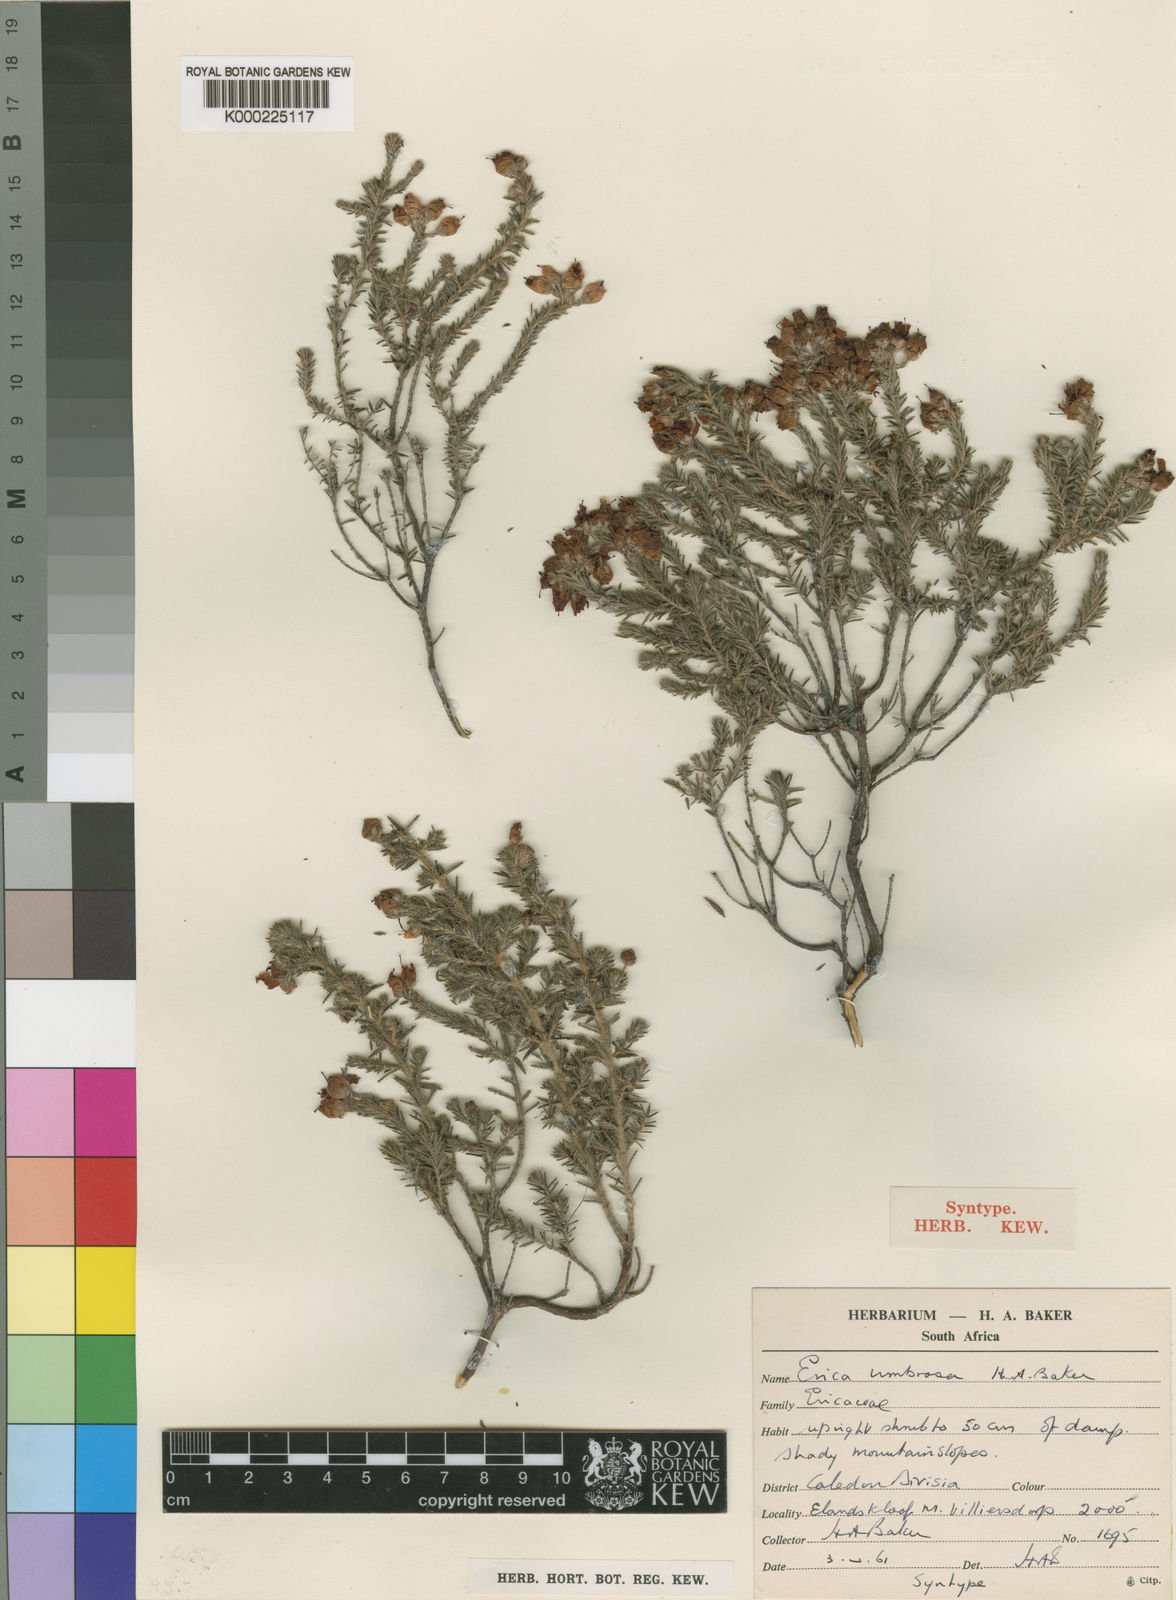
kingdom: Plantae
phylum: Tracheophyta
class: Magnoliopsida
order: Ericales
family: Ericaceae
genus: Erica
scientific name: Erica armata
